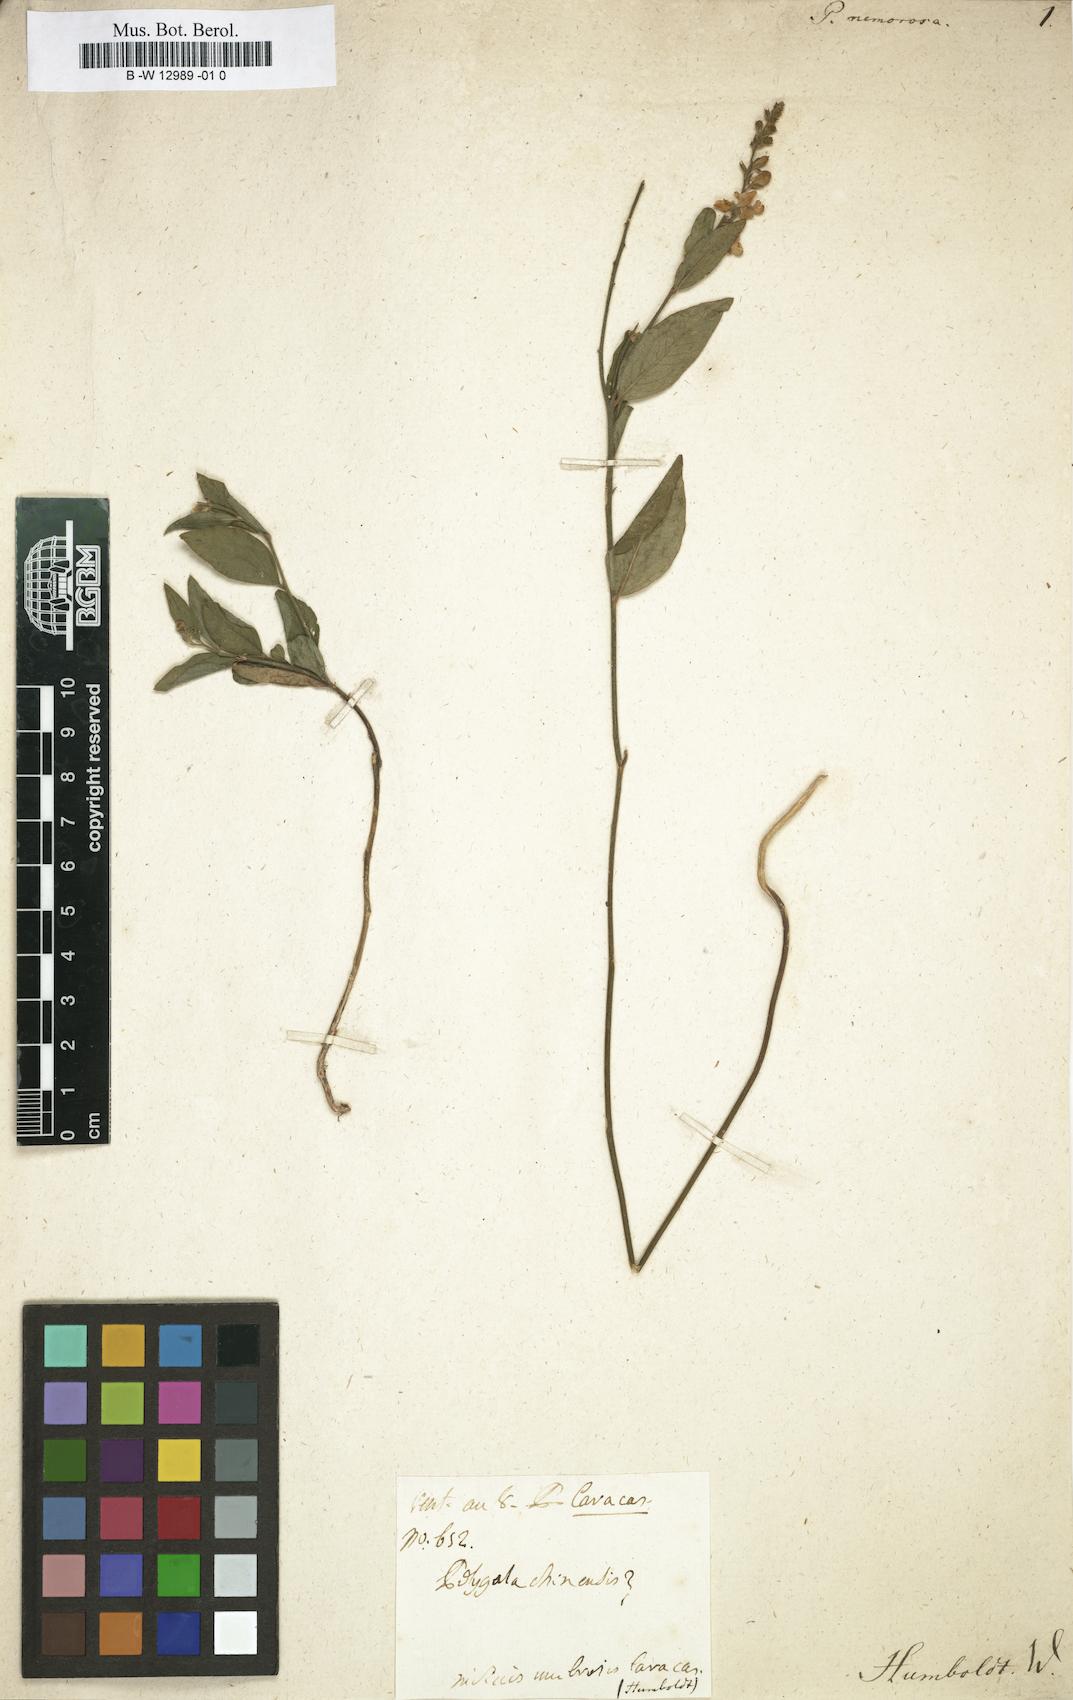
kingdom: Plantae
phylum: Tracheophyta
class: Magnoliopsida
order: Fabales
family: Polygalaceae
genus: Hebecarpa
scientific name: Hebecarpa americana
